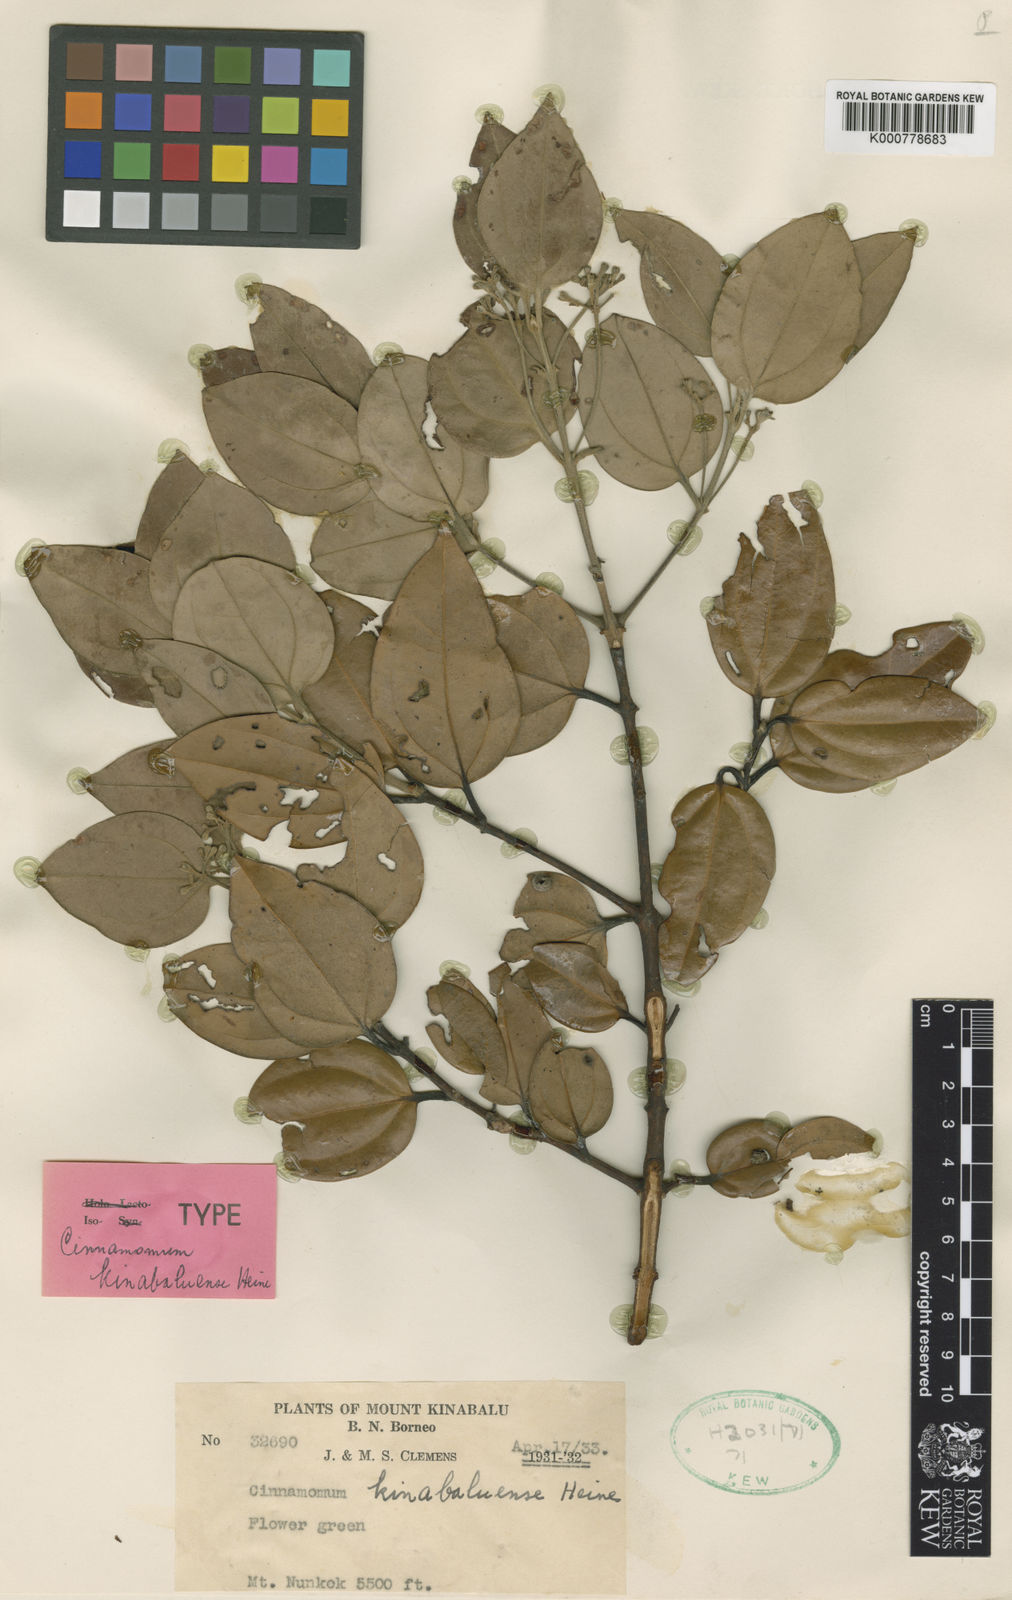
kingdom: Plantae
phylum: Tracheophyta
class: Magnoliopsida
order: Laurales
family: Lauraceae
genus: Cinnamomum
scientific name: Cinnamomum kinabaluense
